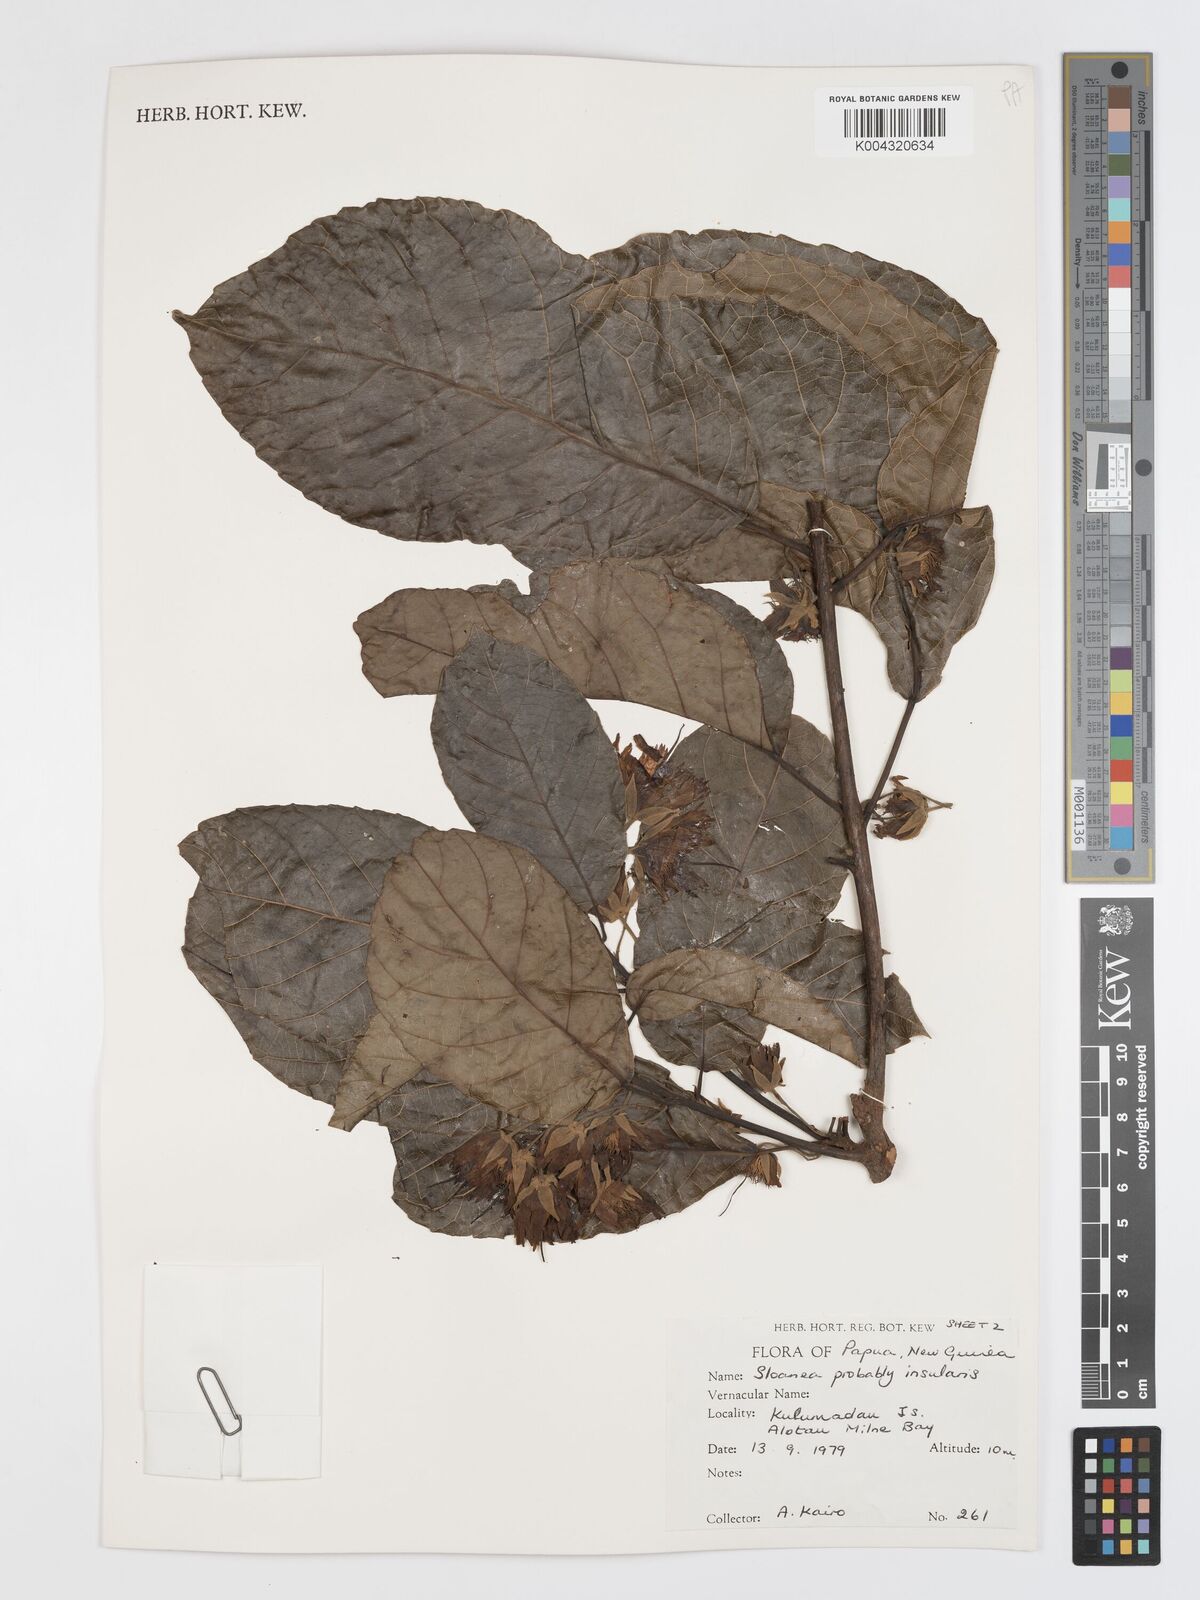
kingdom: Plantae
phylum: Tracheophyta
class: Magnoliopsida
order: Oxalidales
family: Elaeocarpaceae
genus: Sloanea
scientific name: Sloanea insularis
